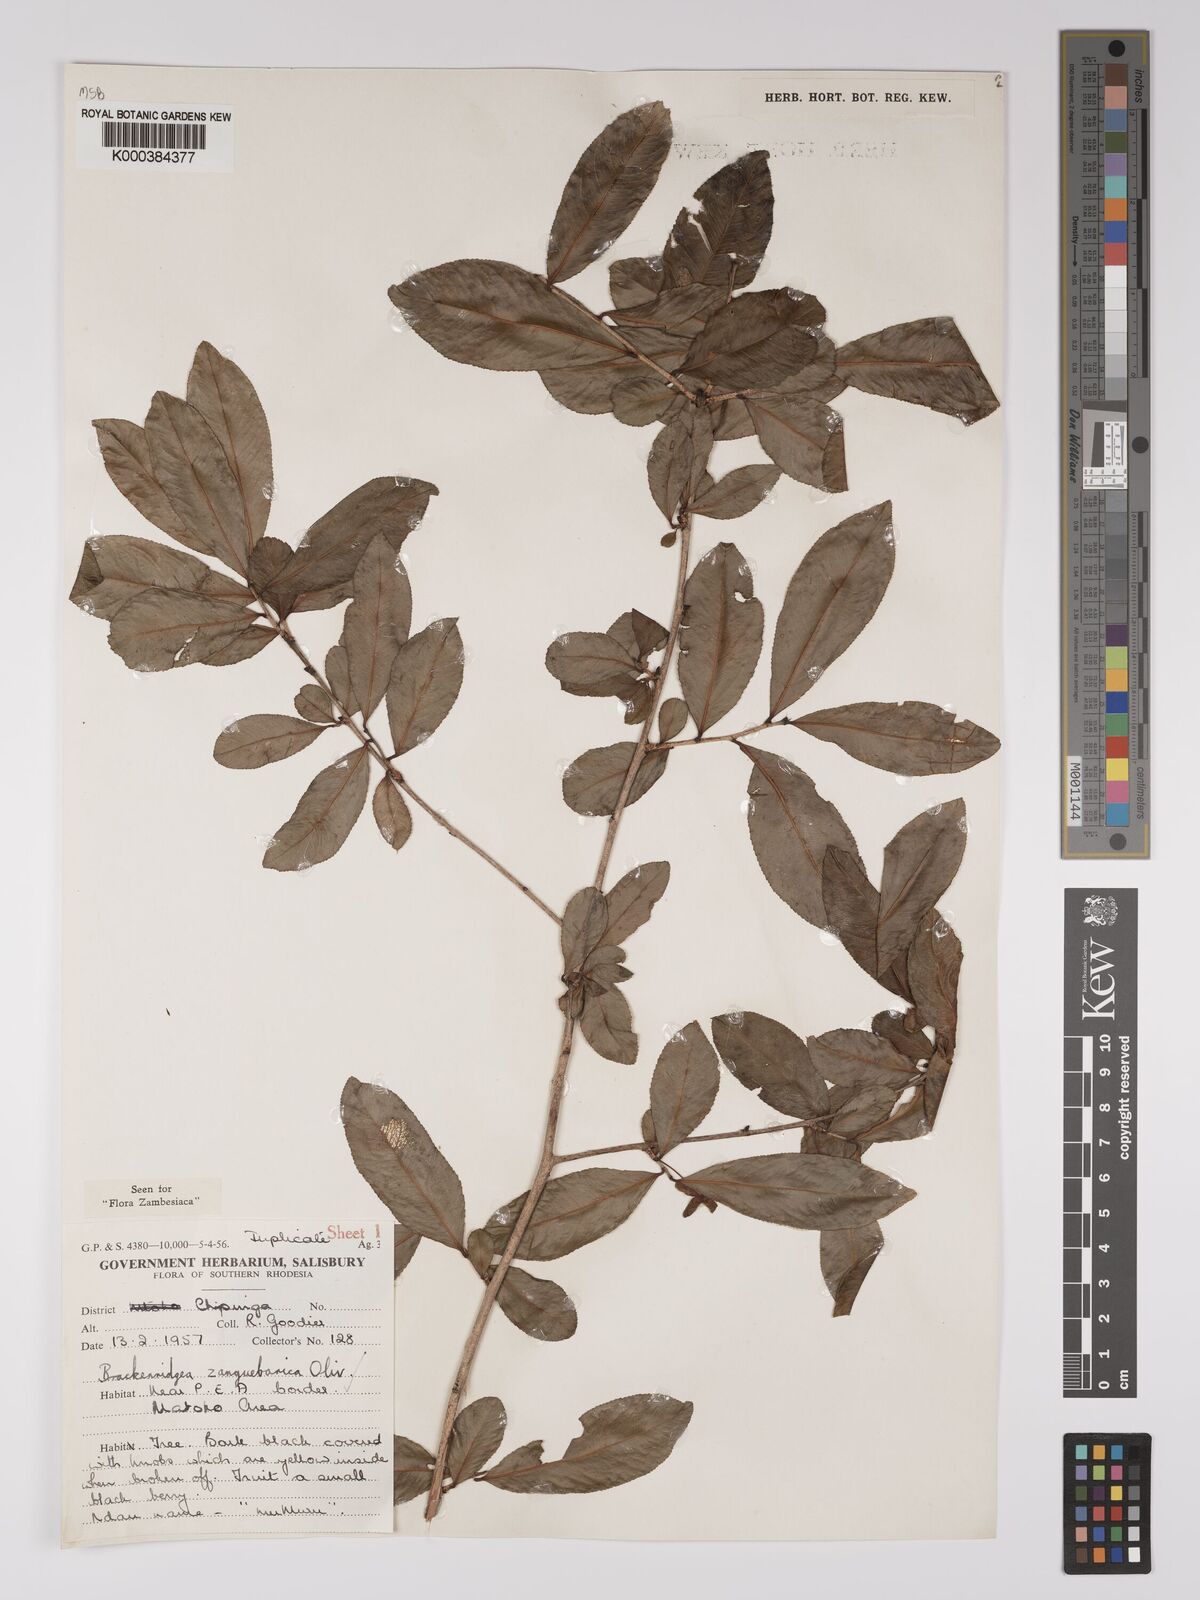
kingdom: Plantae
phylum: Tracheophyta
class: Magnoliopsida
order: Malpighiales
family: Ochnaceae
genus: Brackenridgea
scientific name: Brackenridgea zanguebarica
